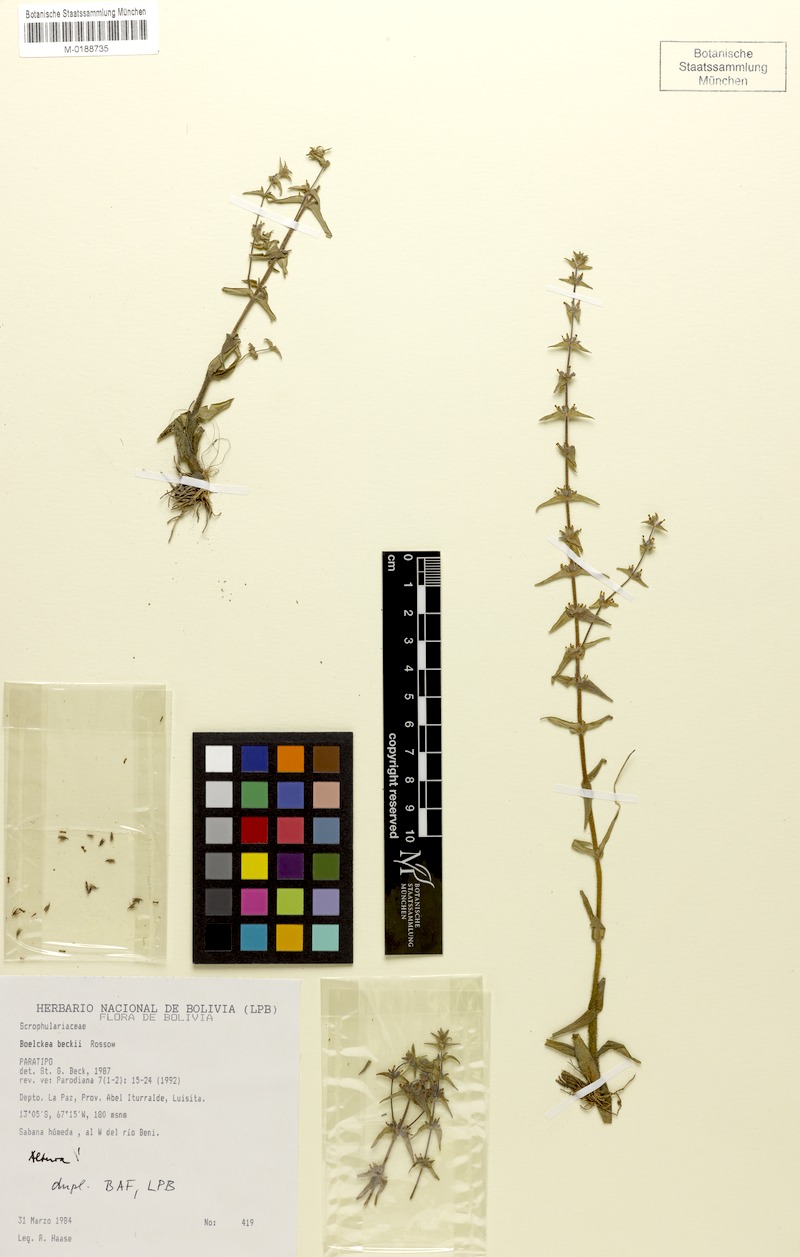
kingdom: Plantae
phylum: Tracheophyta
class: Magnoliopsida
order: Lamiales
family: Plantaginaceae
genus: Boelckea
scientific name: Boelckea beckii
